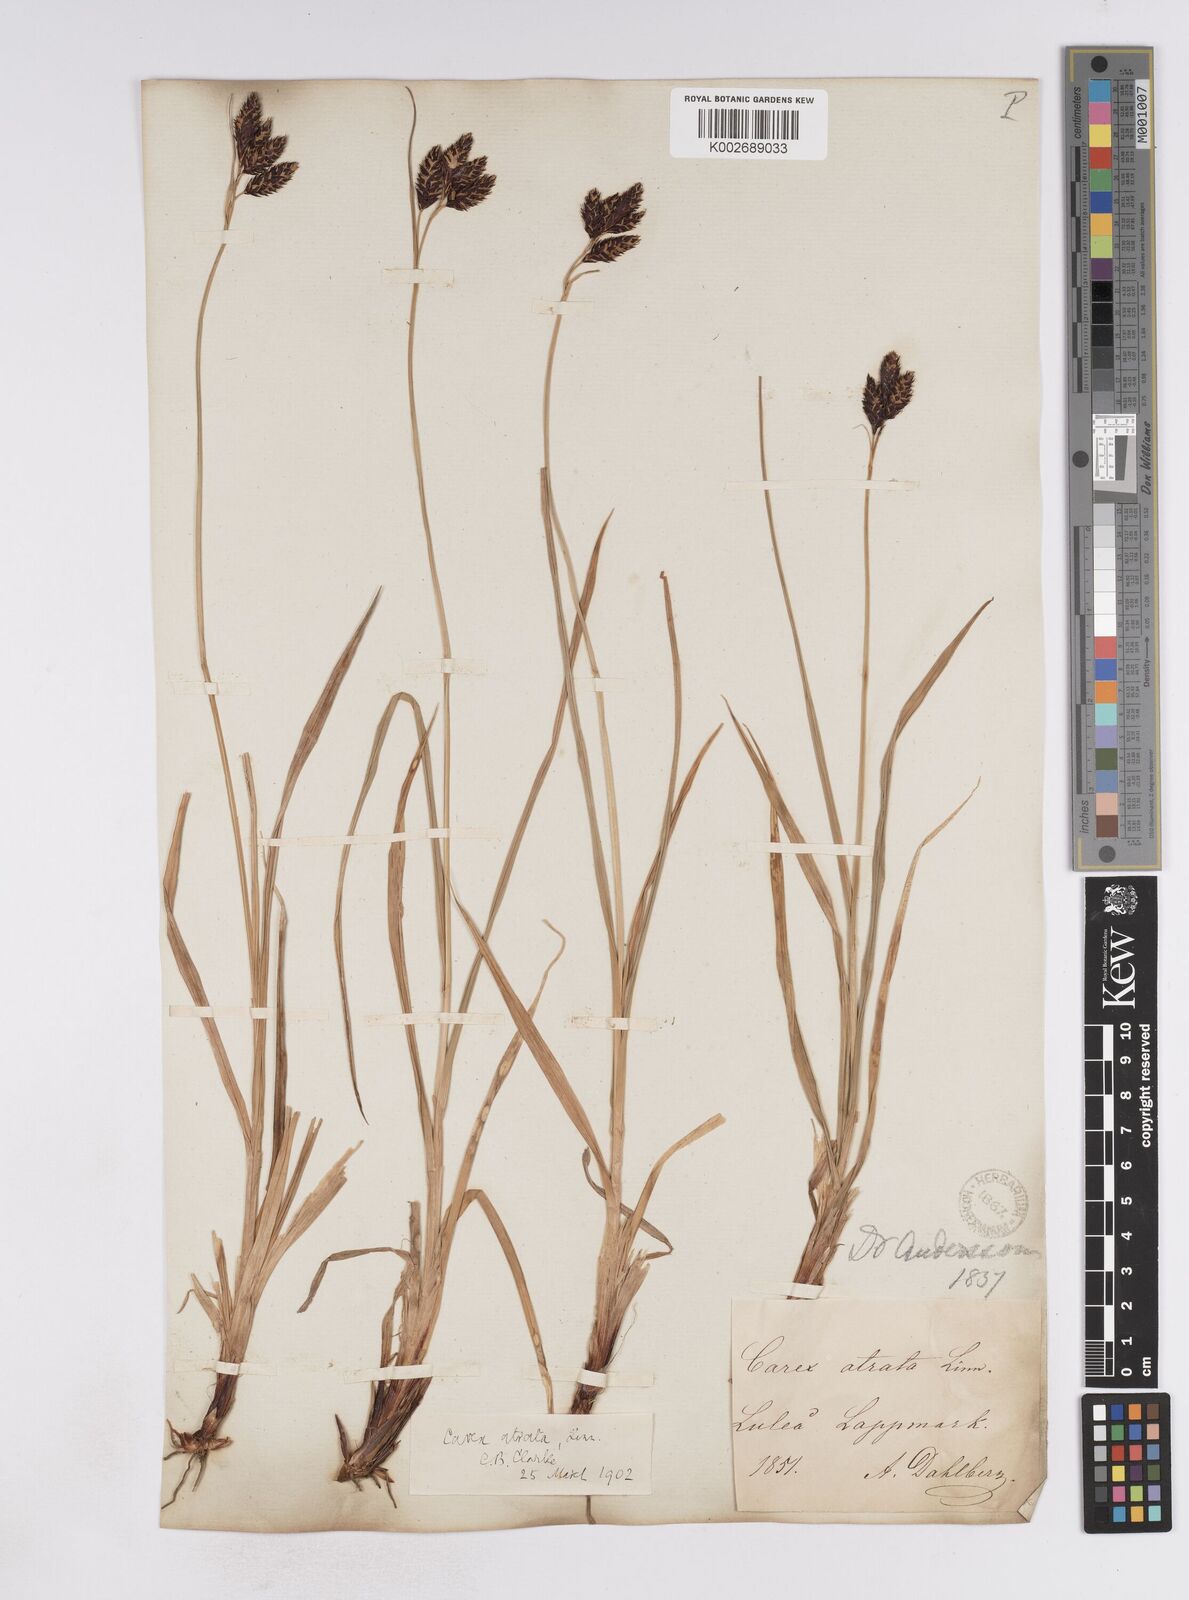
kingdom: Plantae
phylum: Tracheophyta
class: Liliopsida
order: Poales
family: Cyperaceae
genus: Carex
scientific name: Carex atrata
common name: Black alpine sedge
